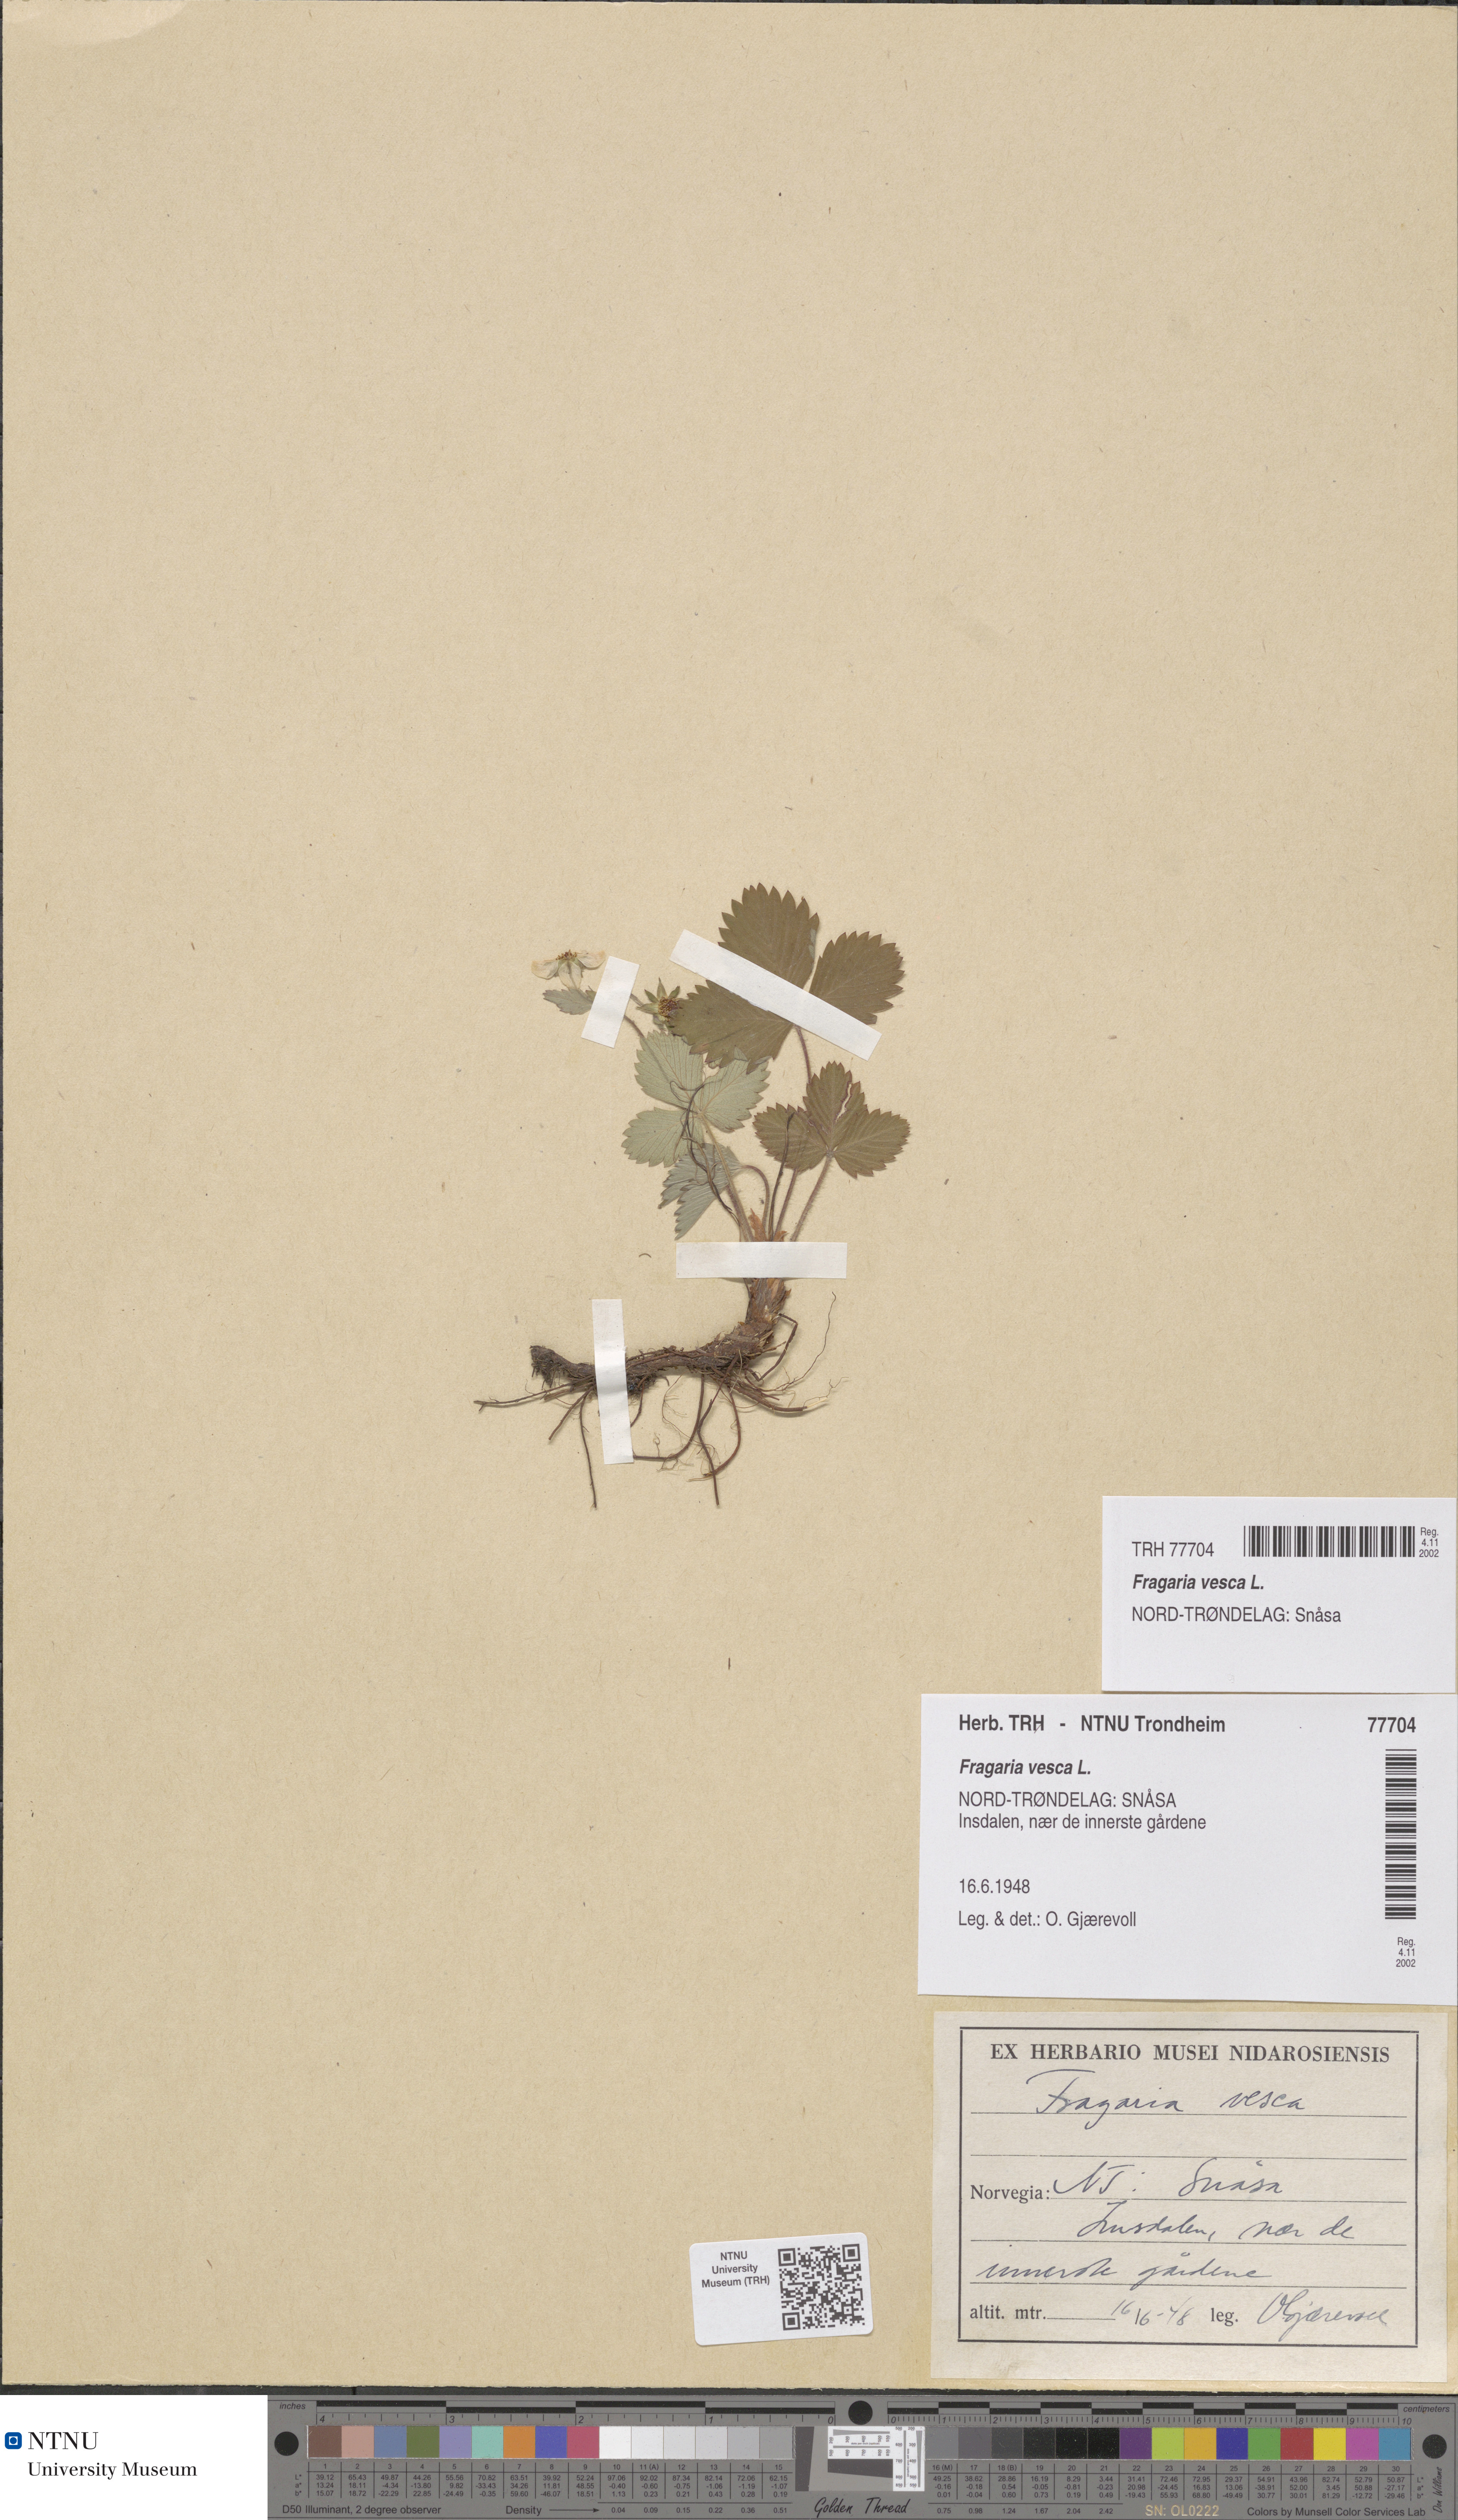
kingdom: Plantae
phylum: Tracheophyta
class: Magnoliopsida
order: Rosales
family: Rosaceae
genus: Fragaria
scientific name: Fragaria vesca
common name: Wild strawberry
